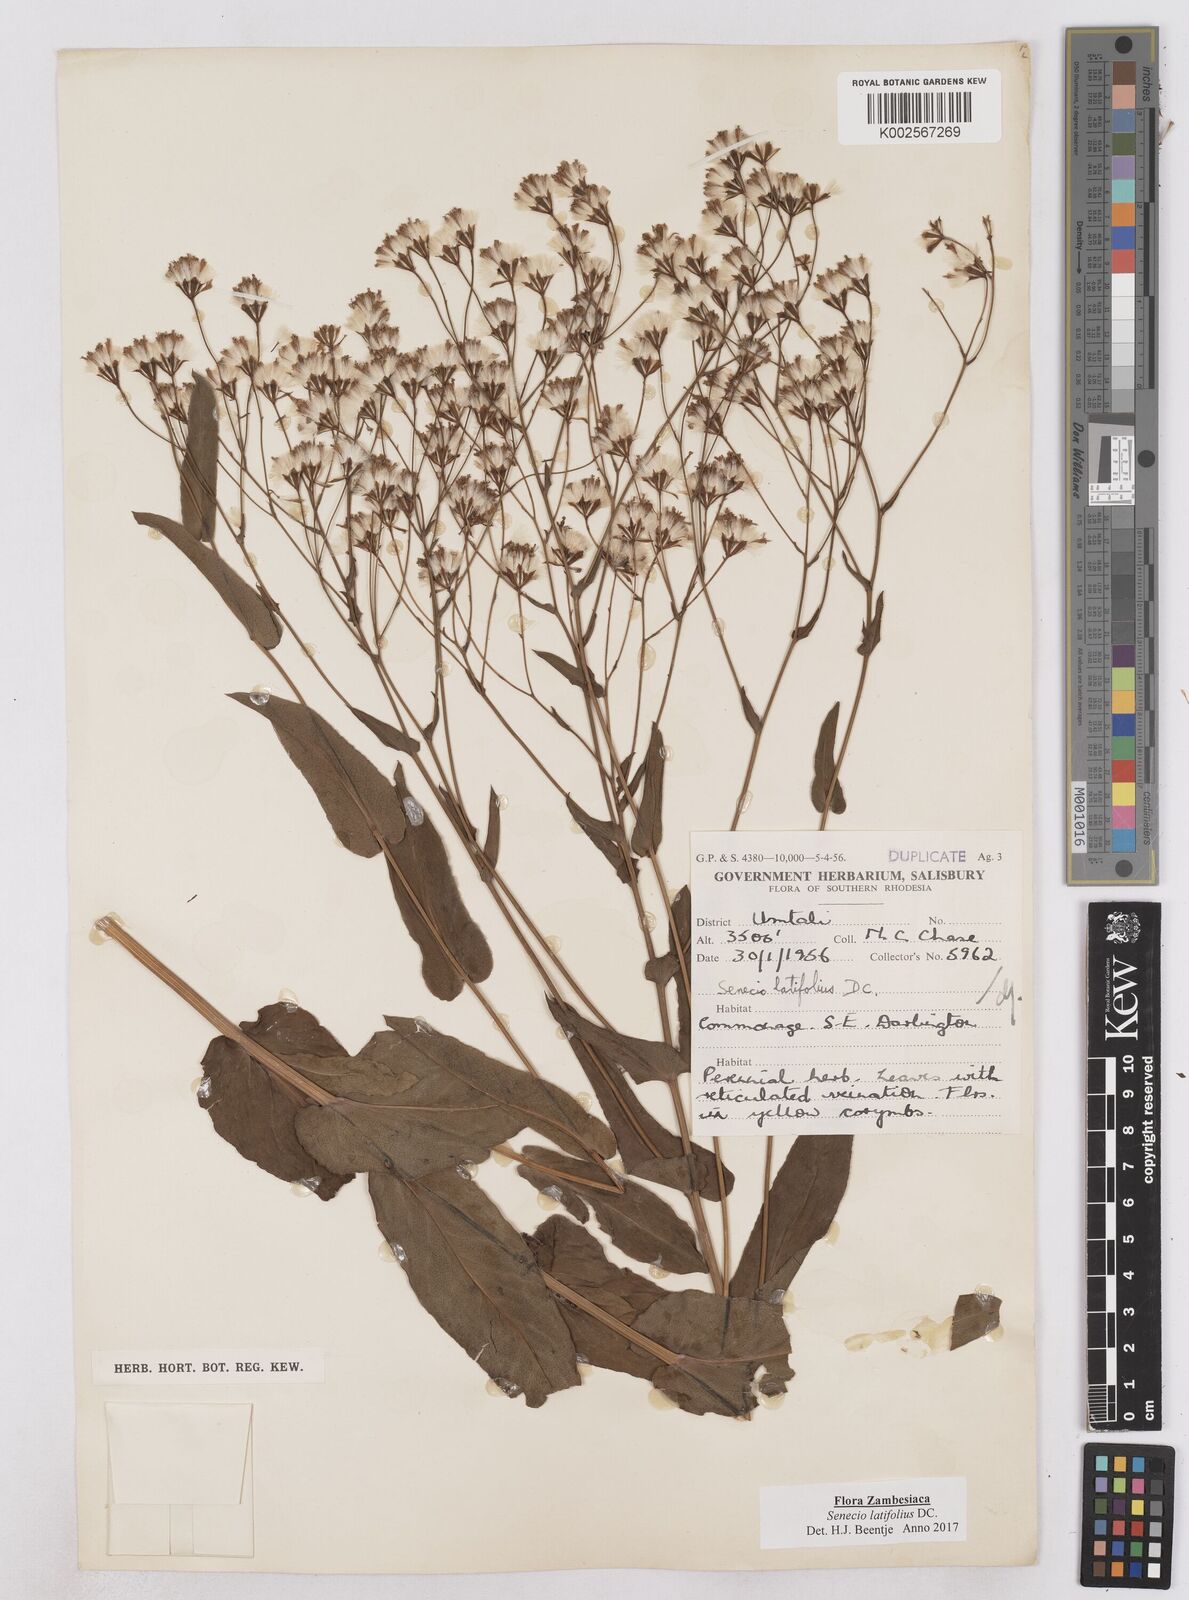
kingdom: Plantae
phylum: Tracheophyta
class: Magnoliopsida
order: Asterales
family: Asteraceae
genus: Senecio
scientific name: Senecio latifolius
